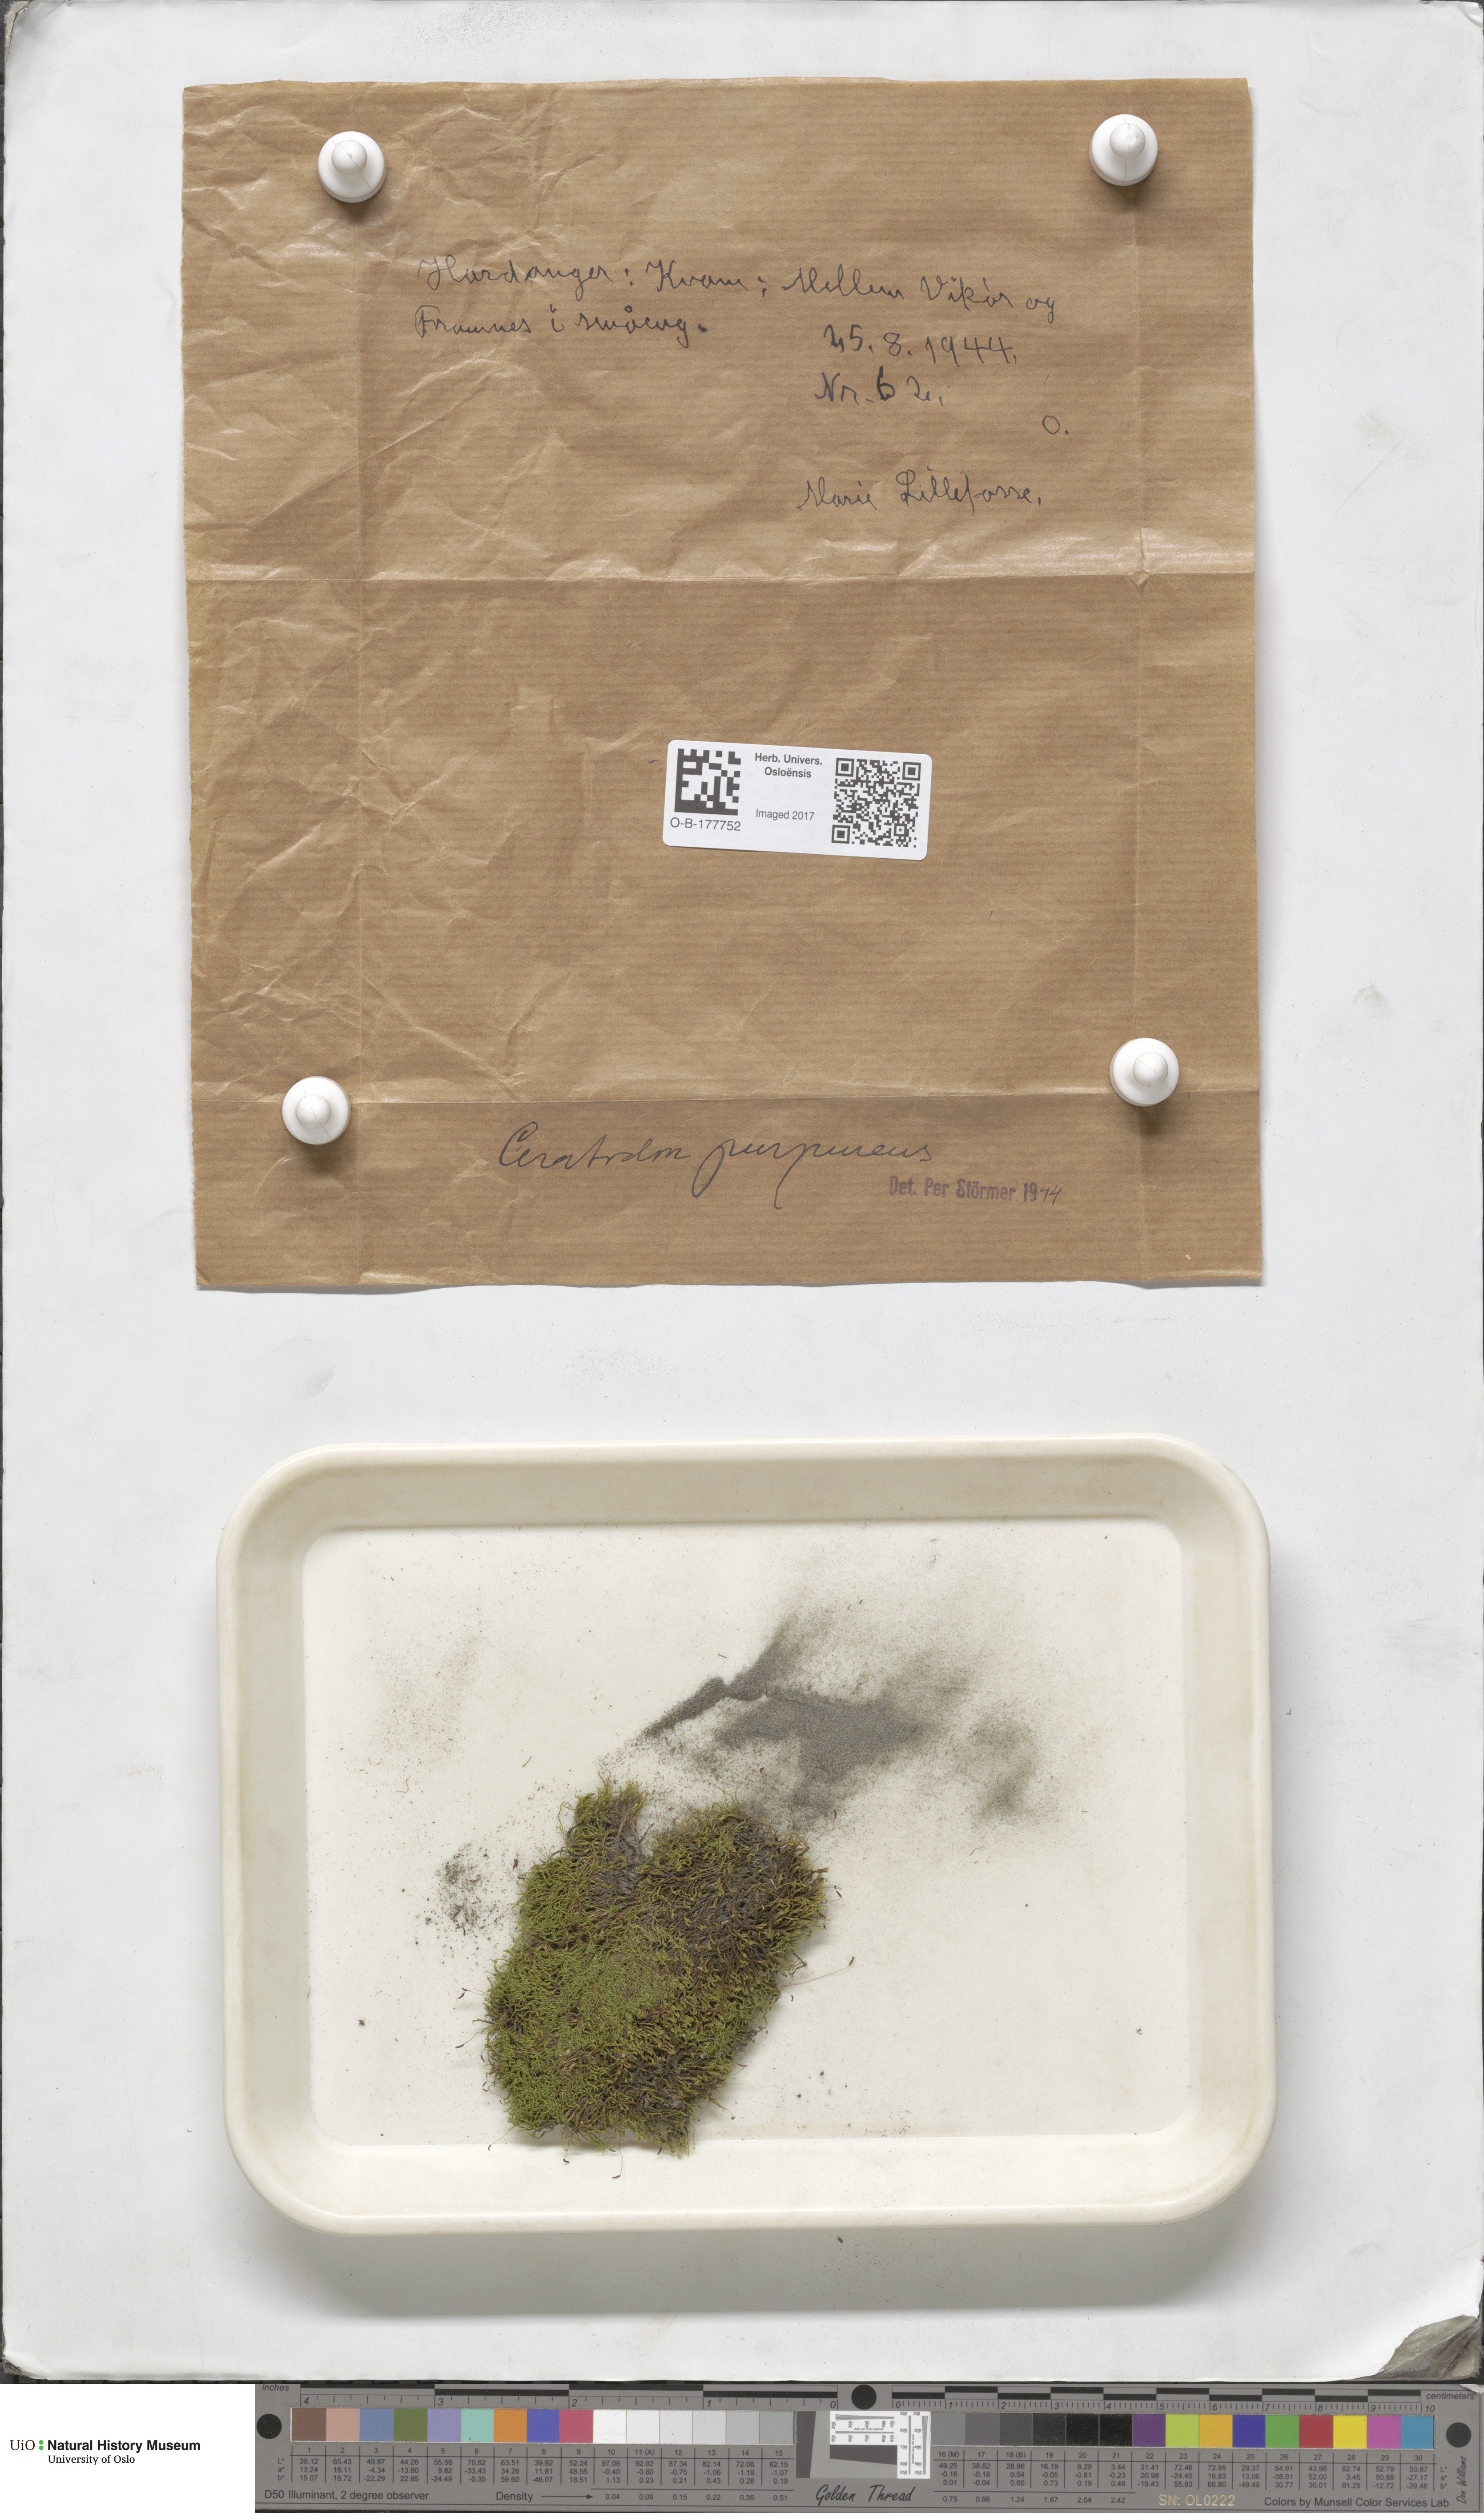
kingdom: Plantae
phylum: Bryophyta
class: Bryopsida
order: Dicranales
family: Ditrichaceae
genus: Ceratodon
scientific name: Ceratodon purpureus
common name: Redshank
